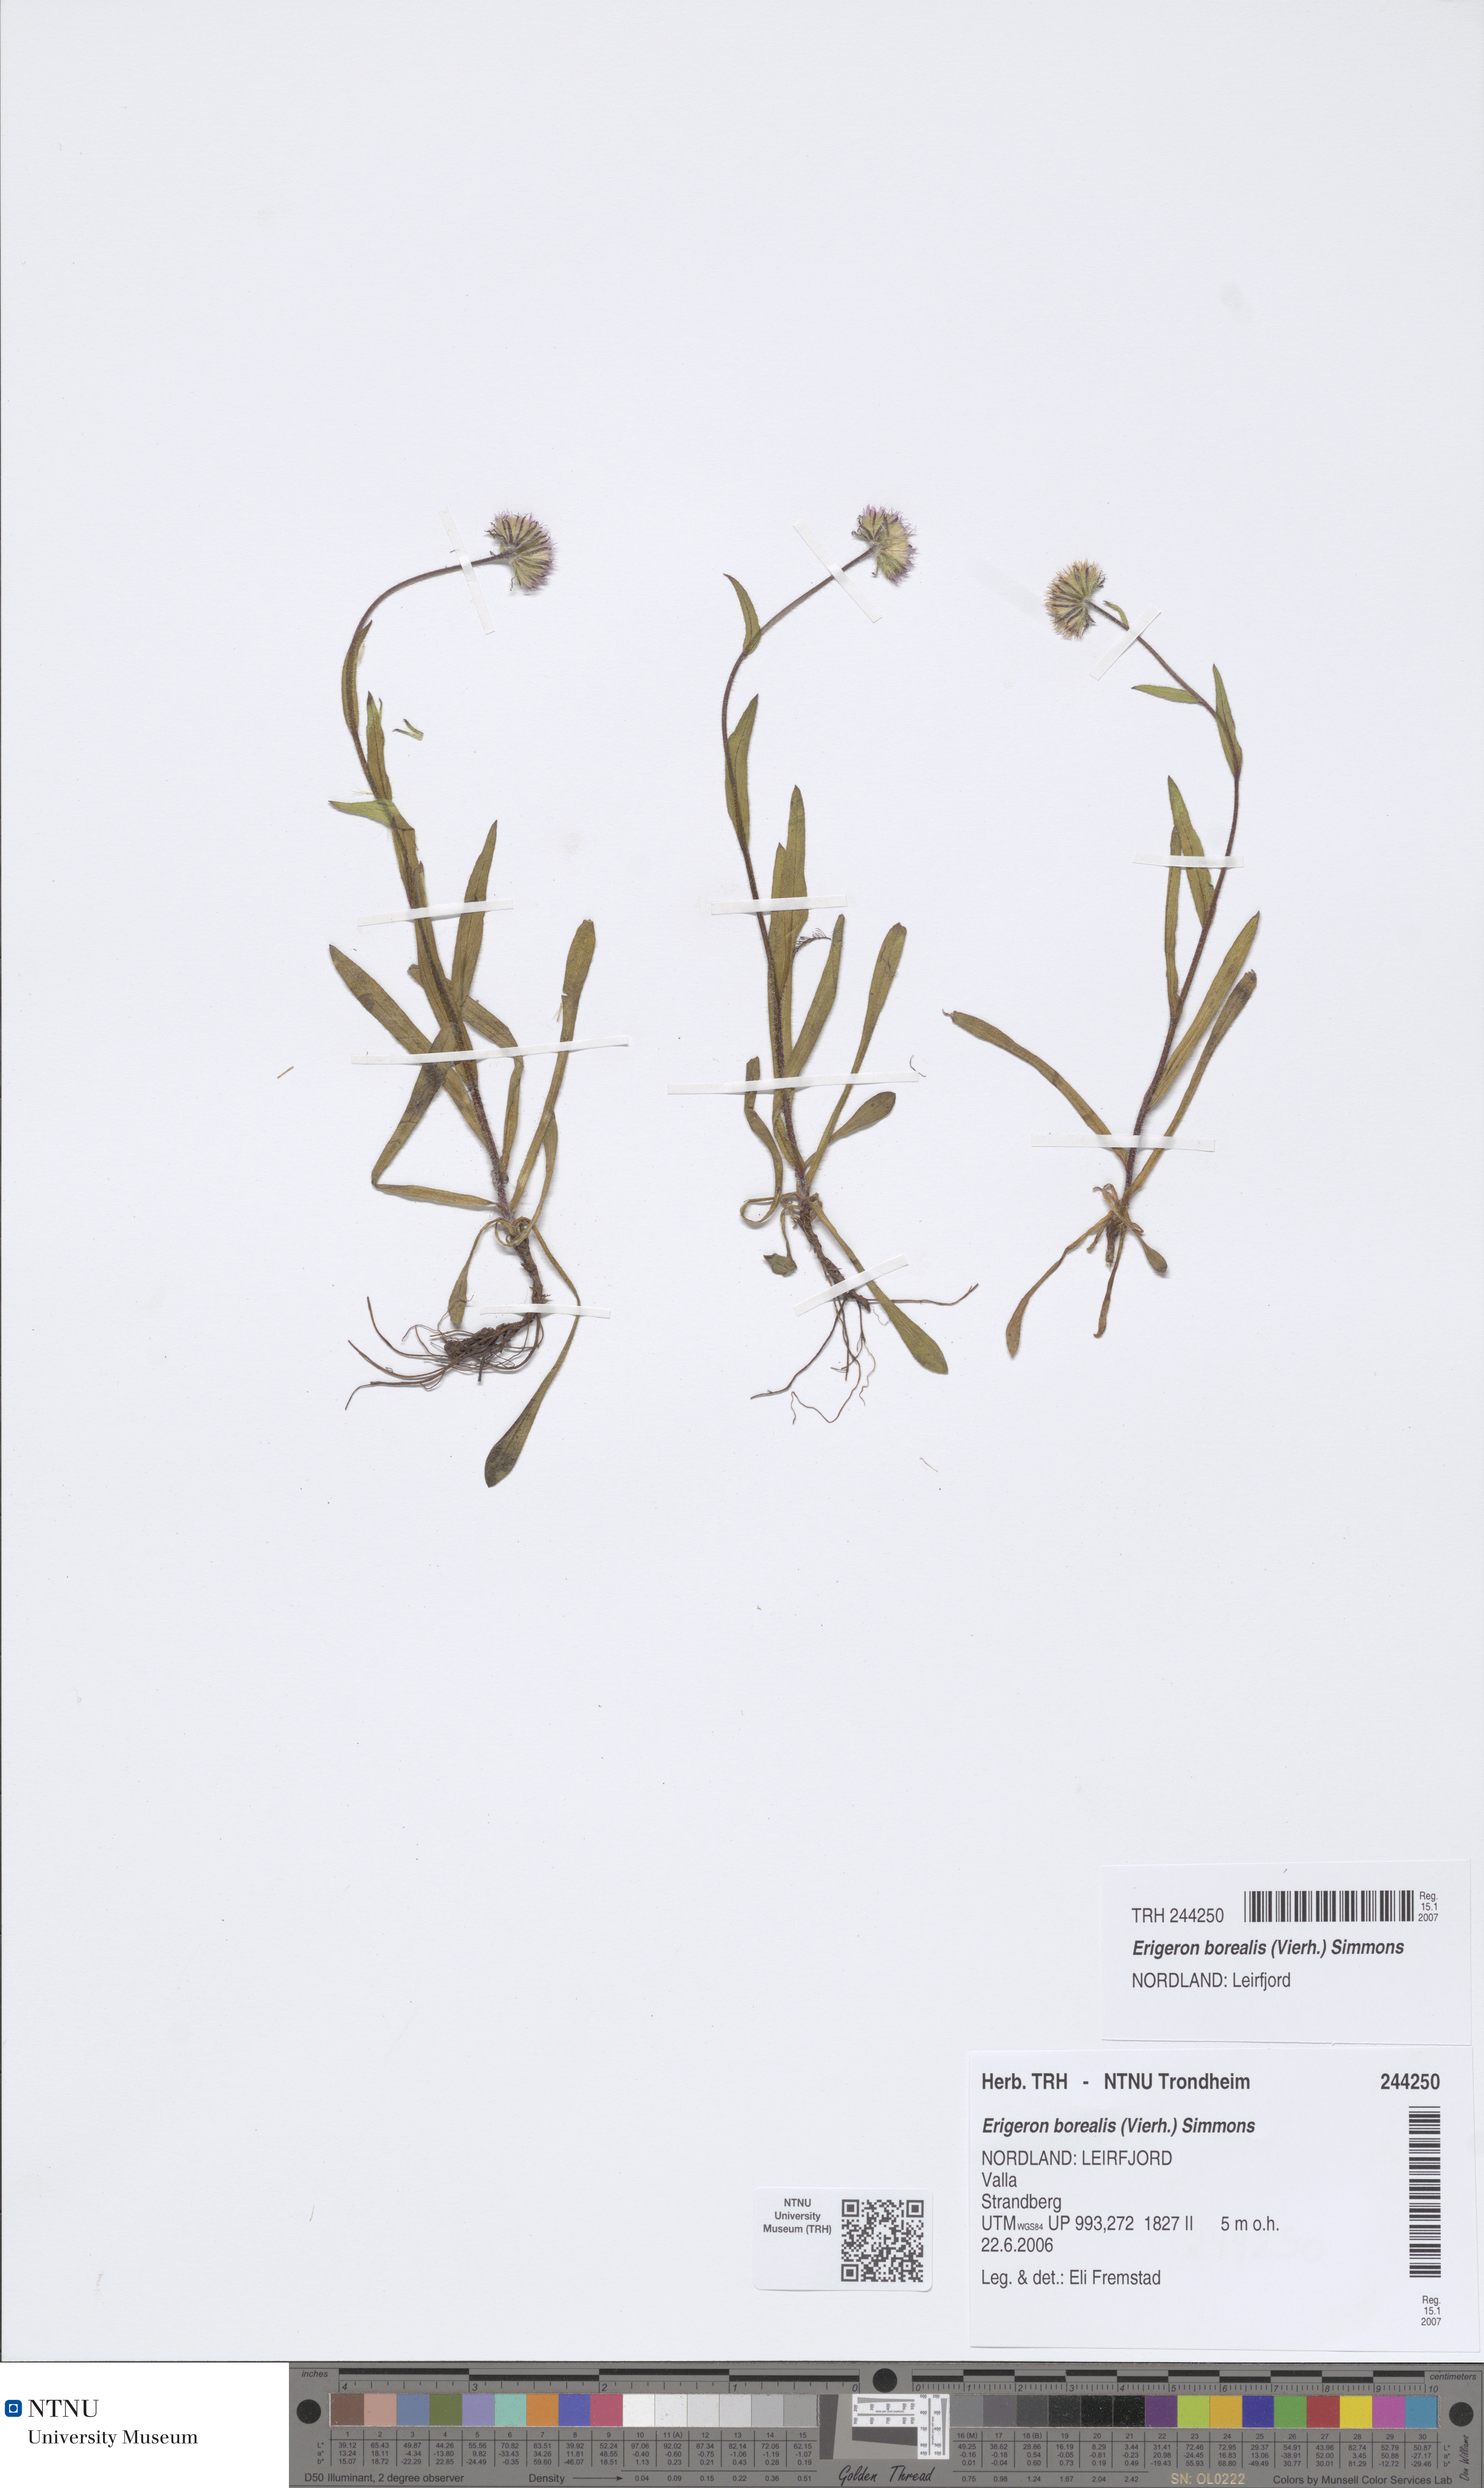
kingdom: Plantae
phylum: Tracheophyta
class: Magnoliopsida
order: Asterales
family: Asteraceae
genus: Erigeron
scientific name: Erigeron borealis
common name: Alpine fleabane
